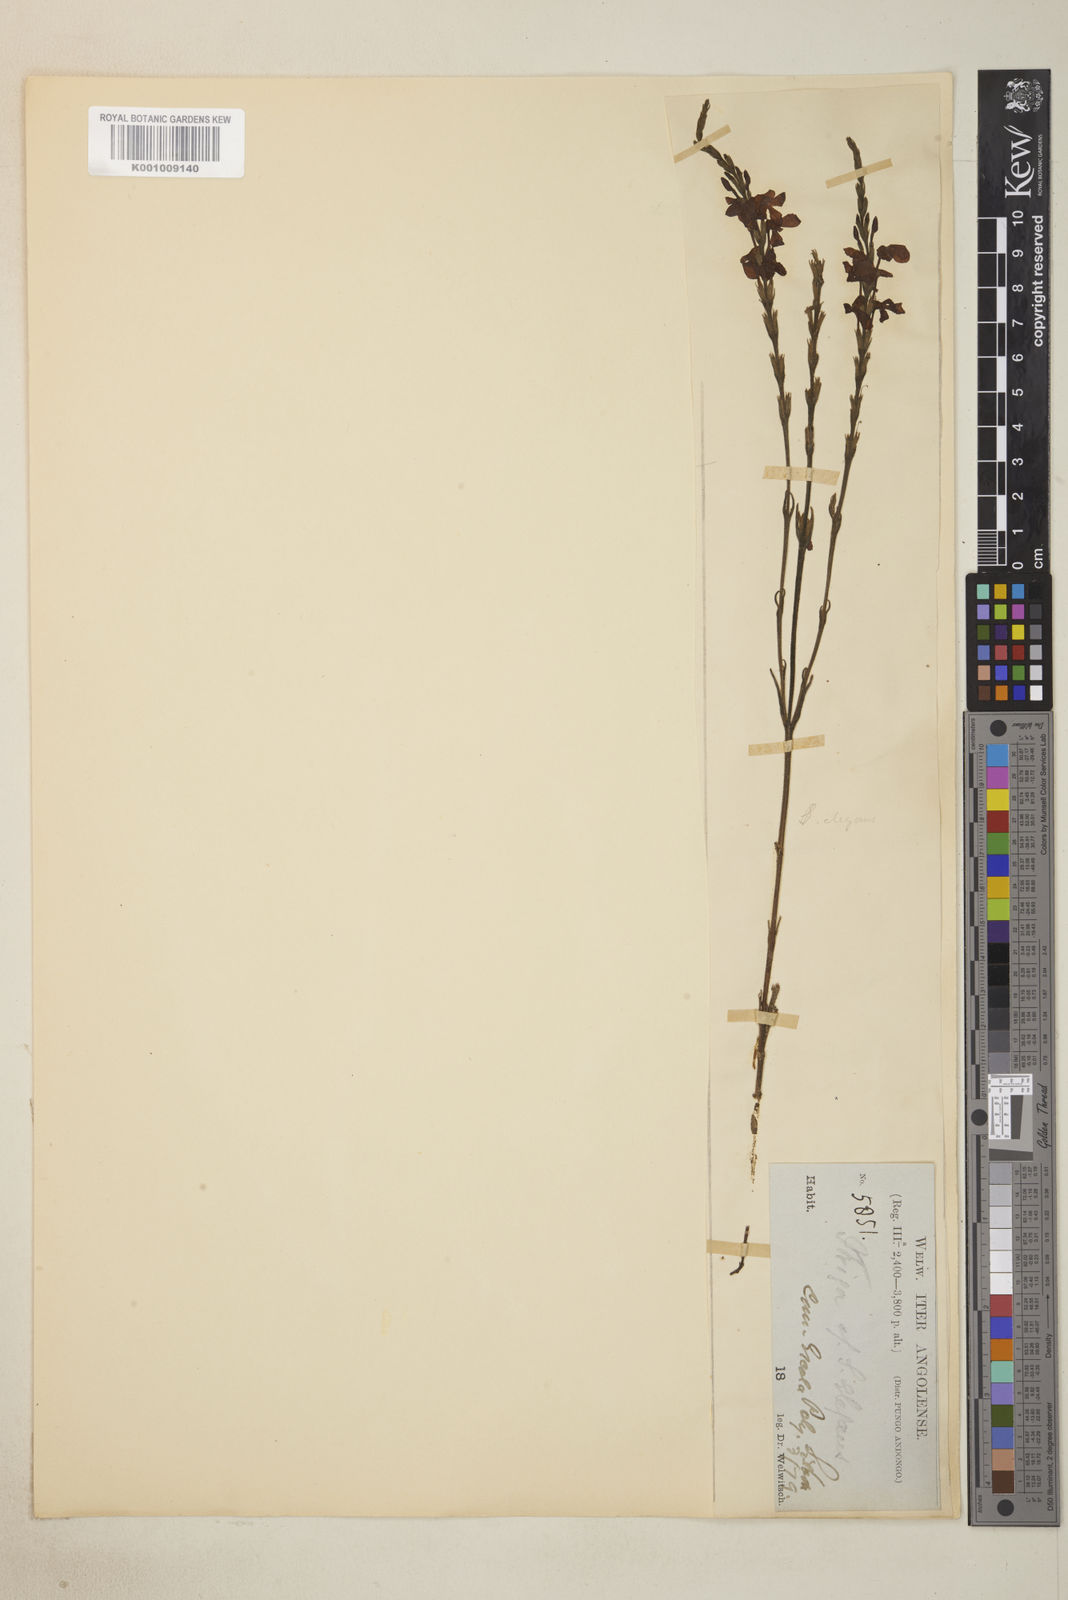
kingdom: Plantae
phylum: Tracheophyta
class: Magnoliopsida
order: Lamiales
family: Orobanchaceae
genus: Striga
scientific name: Striga elegans
